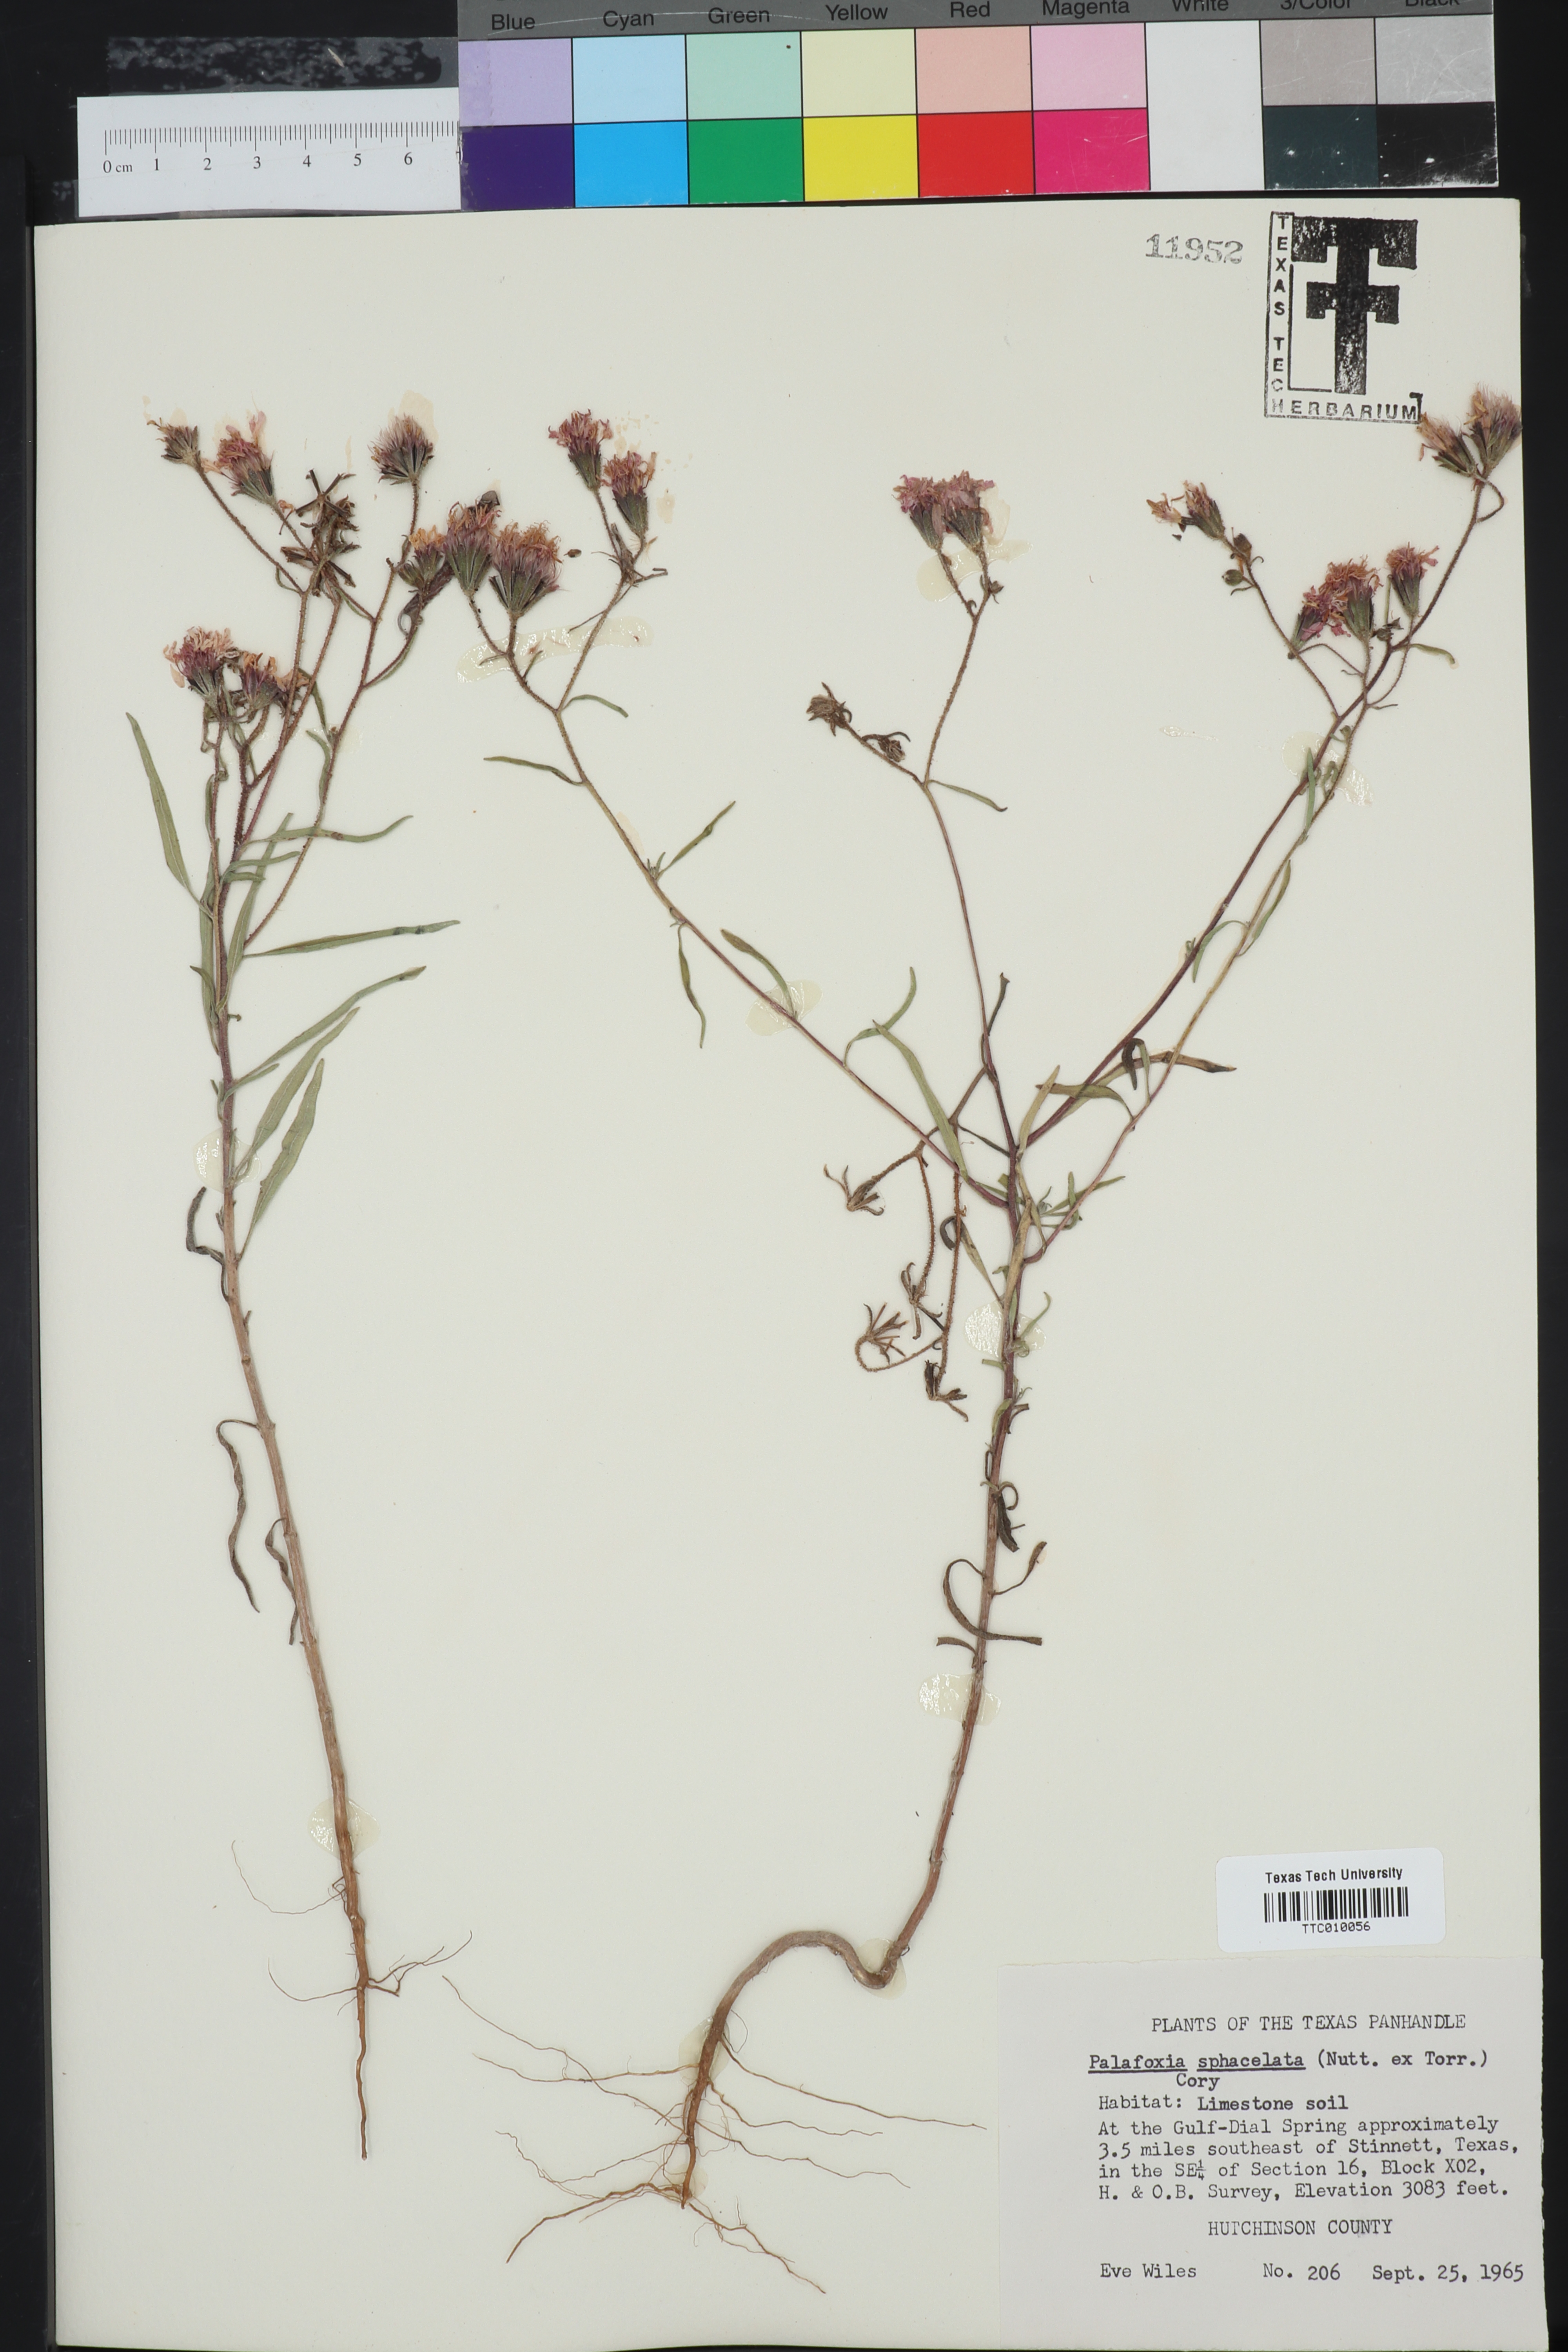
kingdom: Plantae
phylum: Tracheophyta
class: Magnoliopsida
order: Asterales
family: Asteraceae
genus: Palafoxia
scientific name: Palafoxia sphacelata
